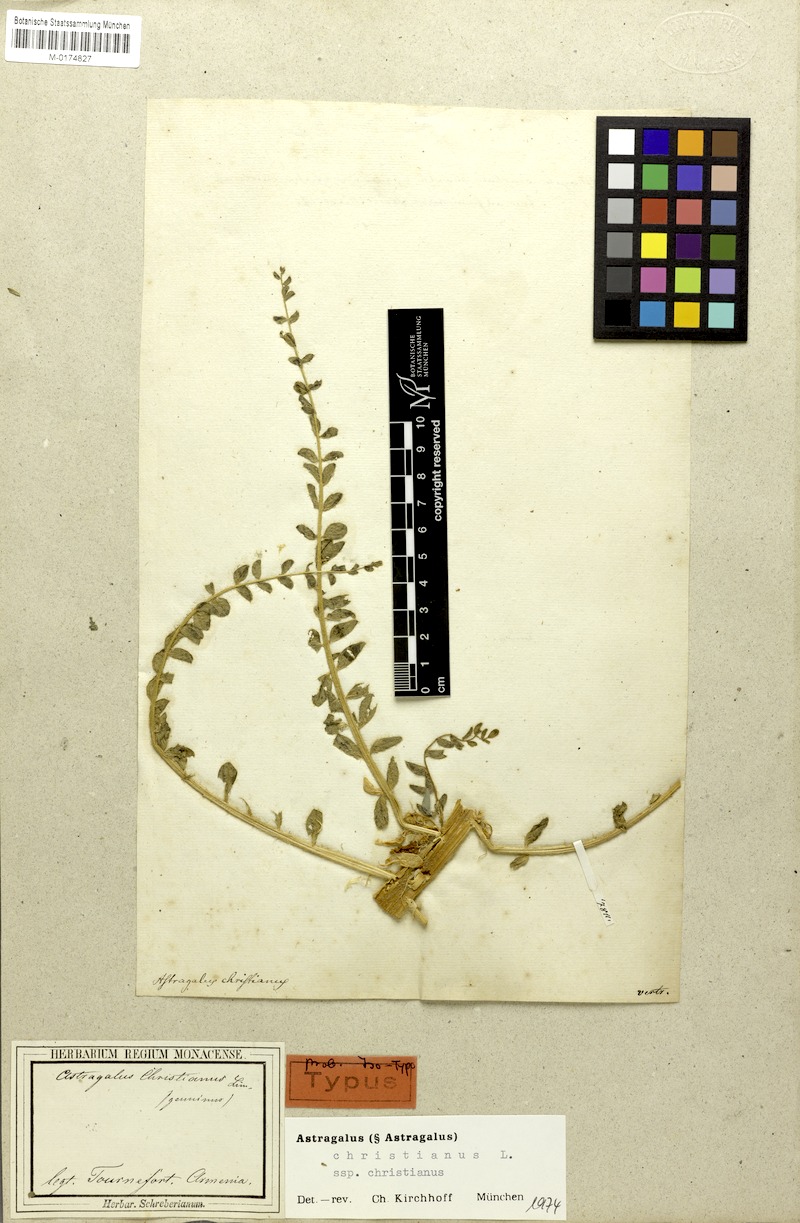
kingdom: Plantae
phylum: Tracheophyta
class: Magnoliopsida
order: Fabales
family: Fabaceae
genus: Astragalus
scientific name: Astragalus christianus
